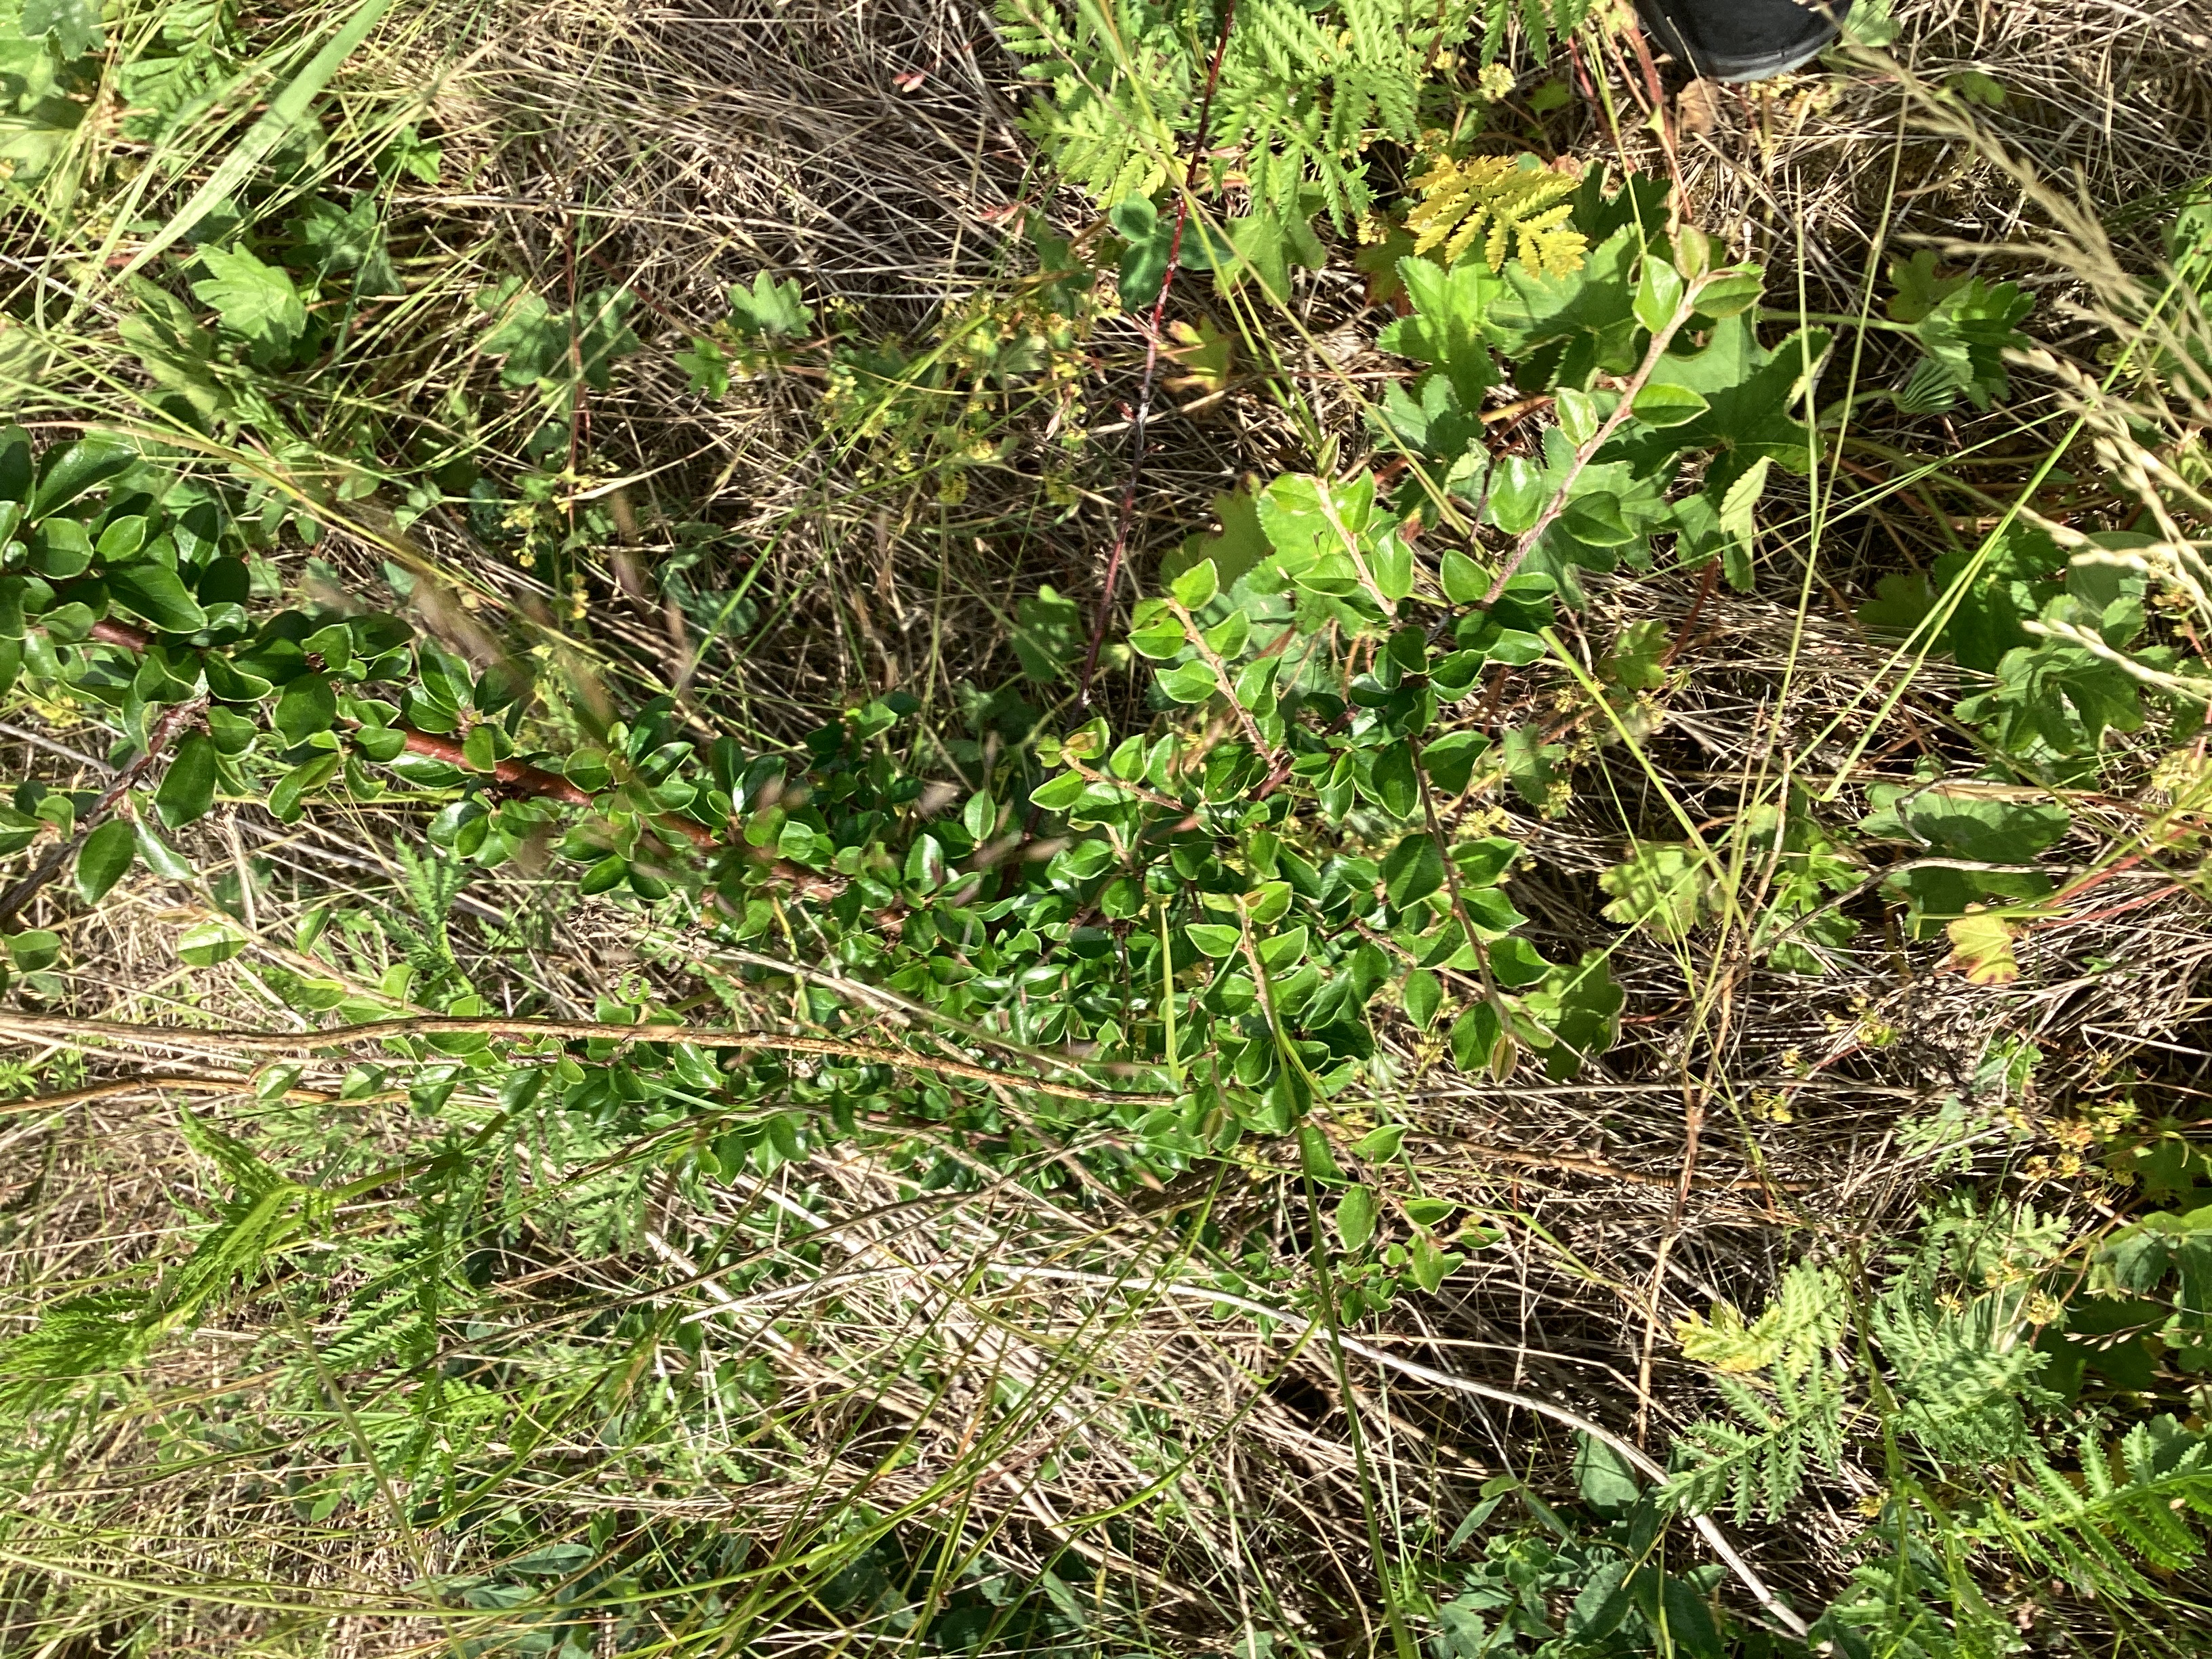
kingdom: Plantae
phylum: Tracheophyta
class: Magnoliopsida
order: Rosales
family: Rosaceae
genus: Cotoneaster
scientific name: Cotoneaster divaricatus
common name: sprikemispel
